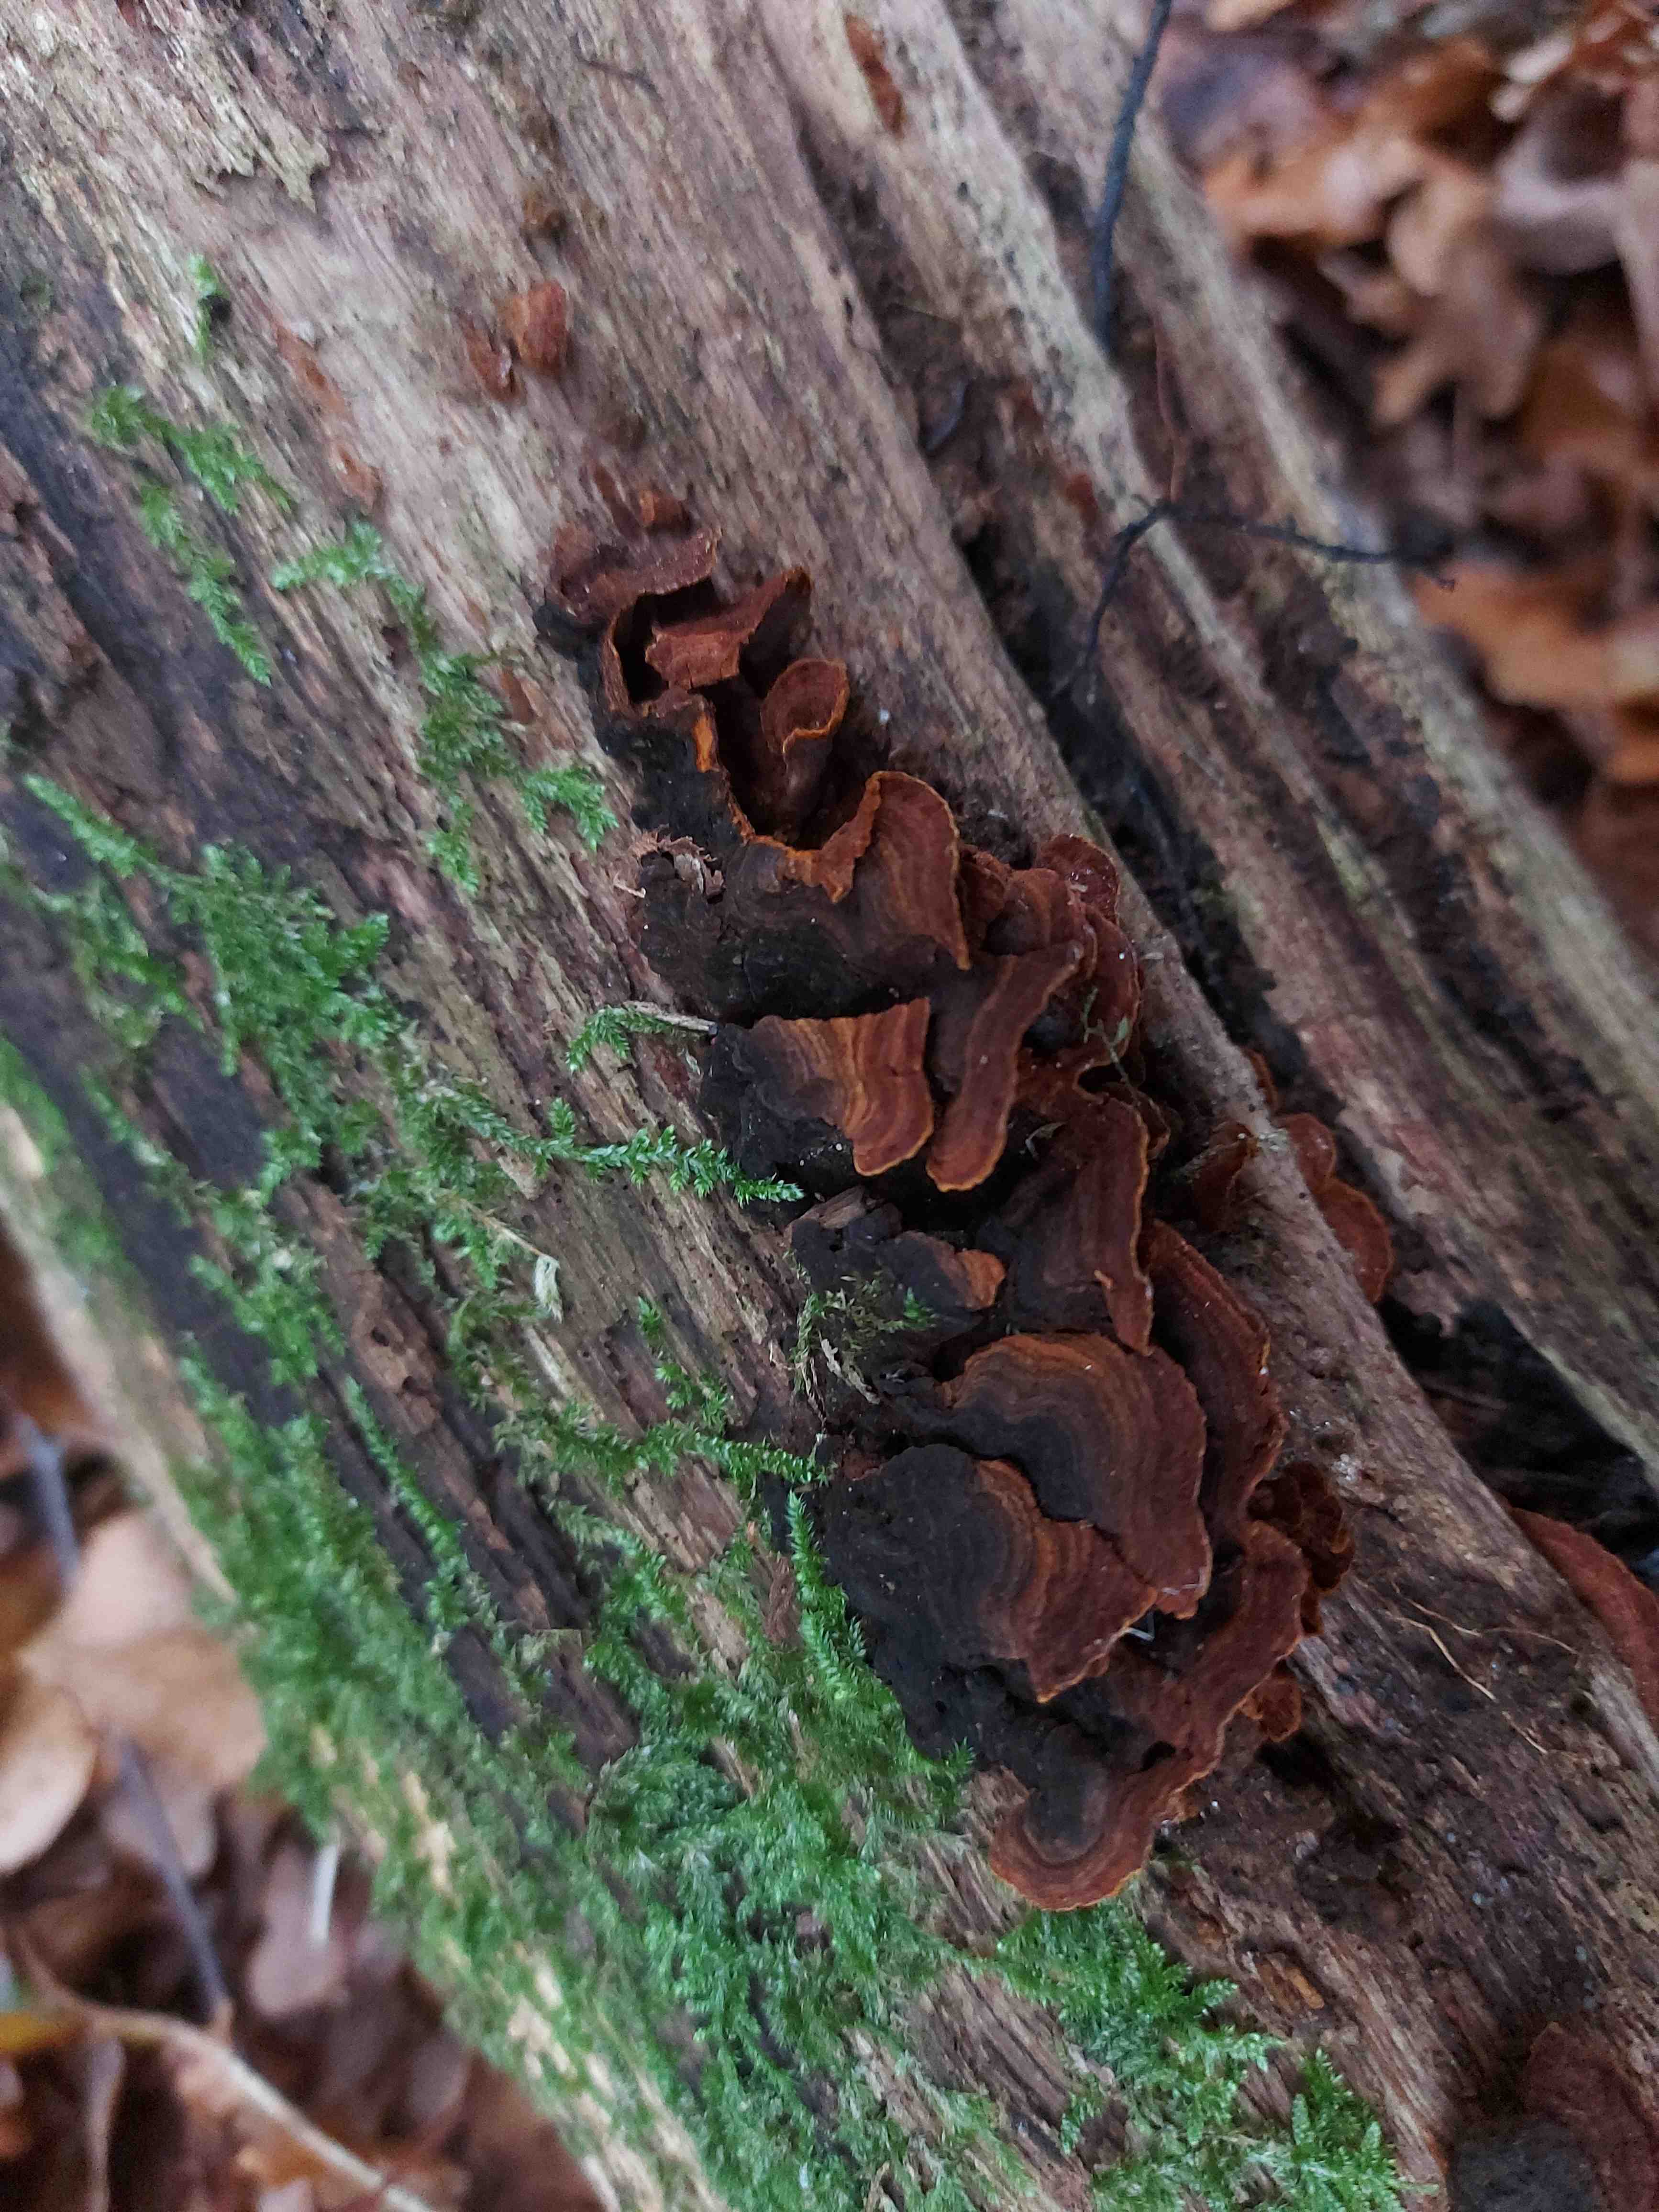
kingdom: Fungi
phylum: Basidiomycota
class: Agaricomycetes
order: Hymenochaetales
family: Hymenochaetaceae
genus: Hymenochaete
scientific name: Hymenochaete rubiginosa
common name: stiv ruslædersvamp
